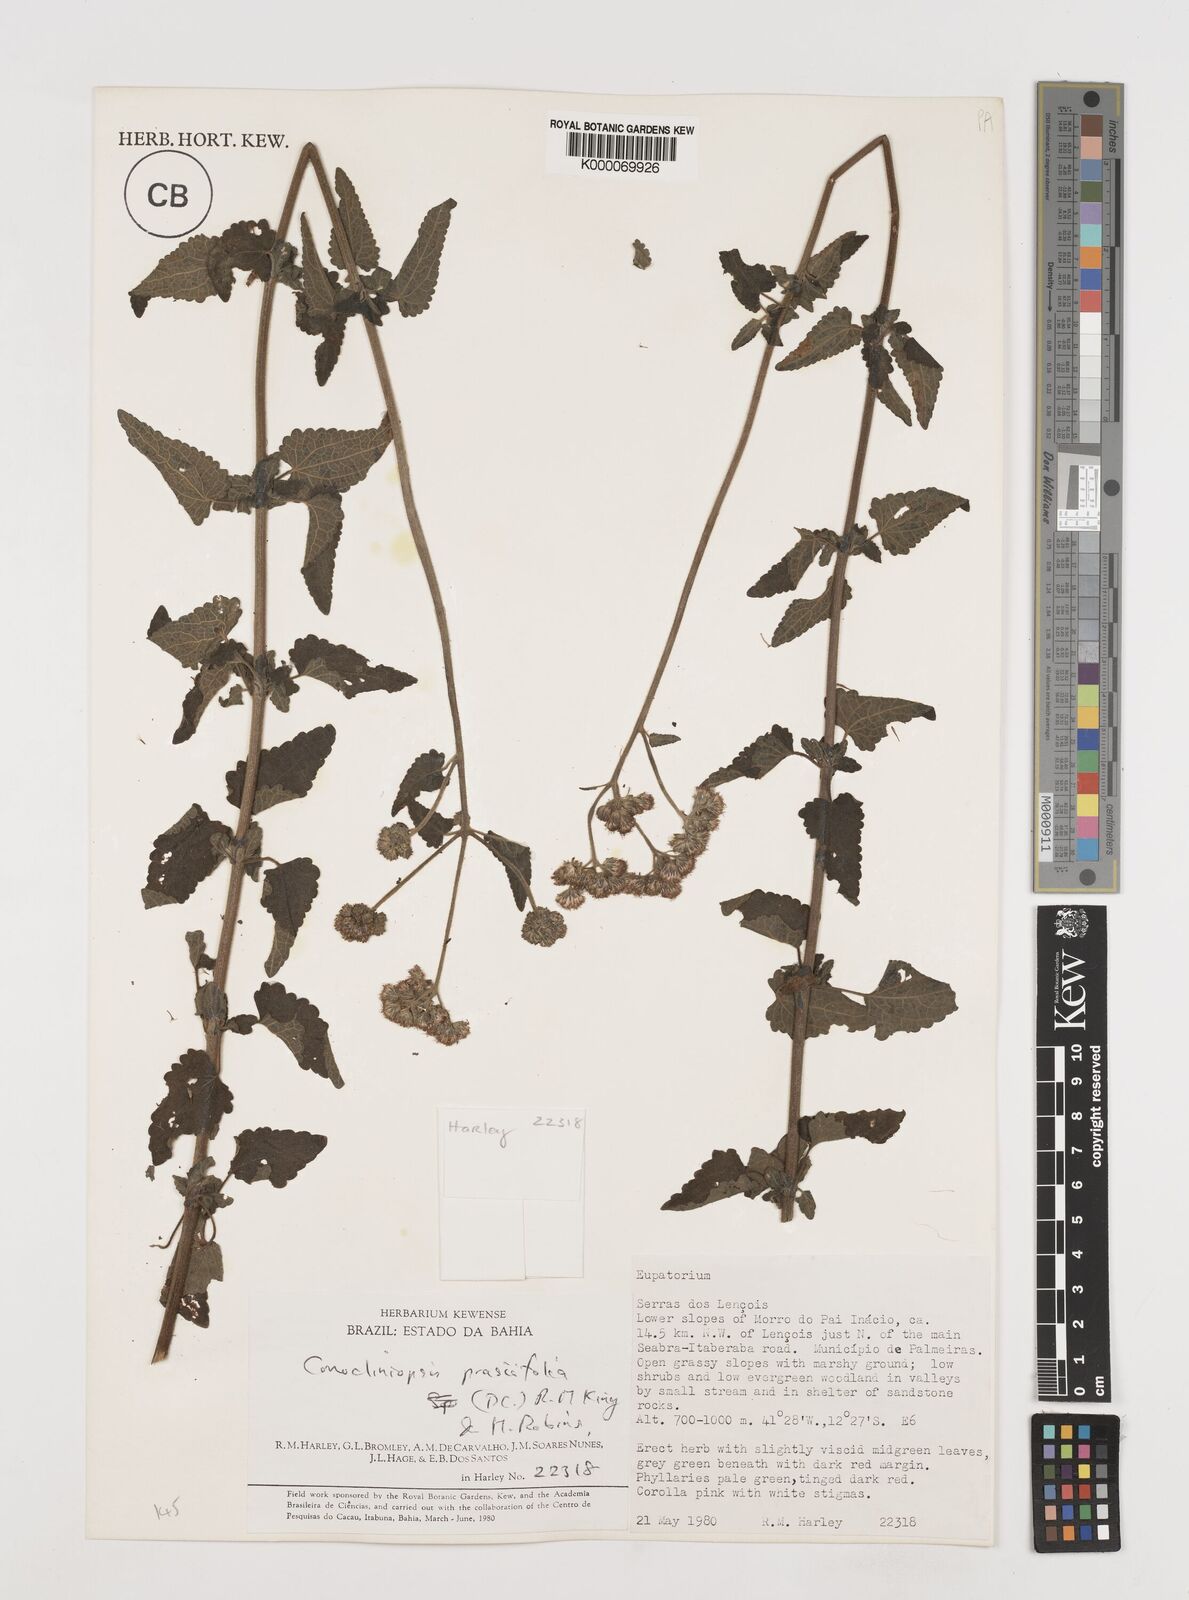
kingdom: Plantae
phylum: Tracheophyta
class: Magnoliopsida
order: Asterales
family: Asteraceae
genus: Conocliniopsis
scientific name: Conocliniopsis grossedentata
